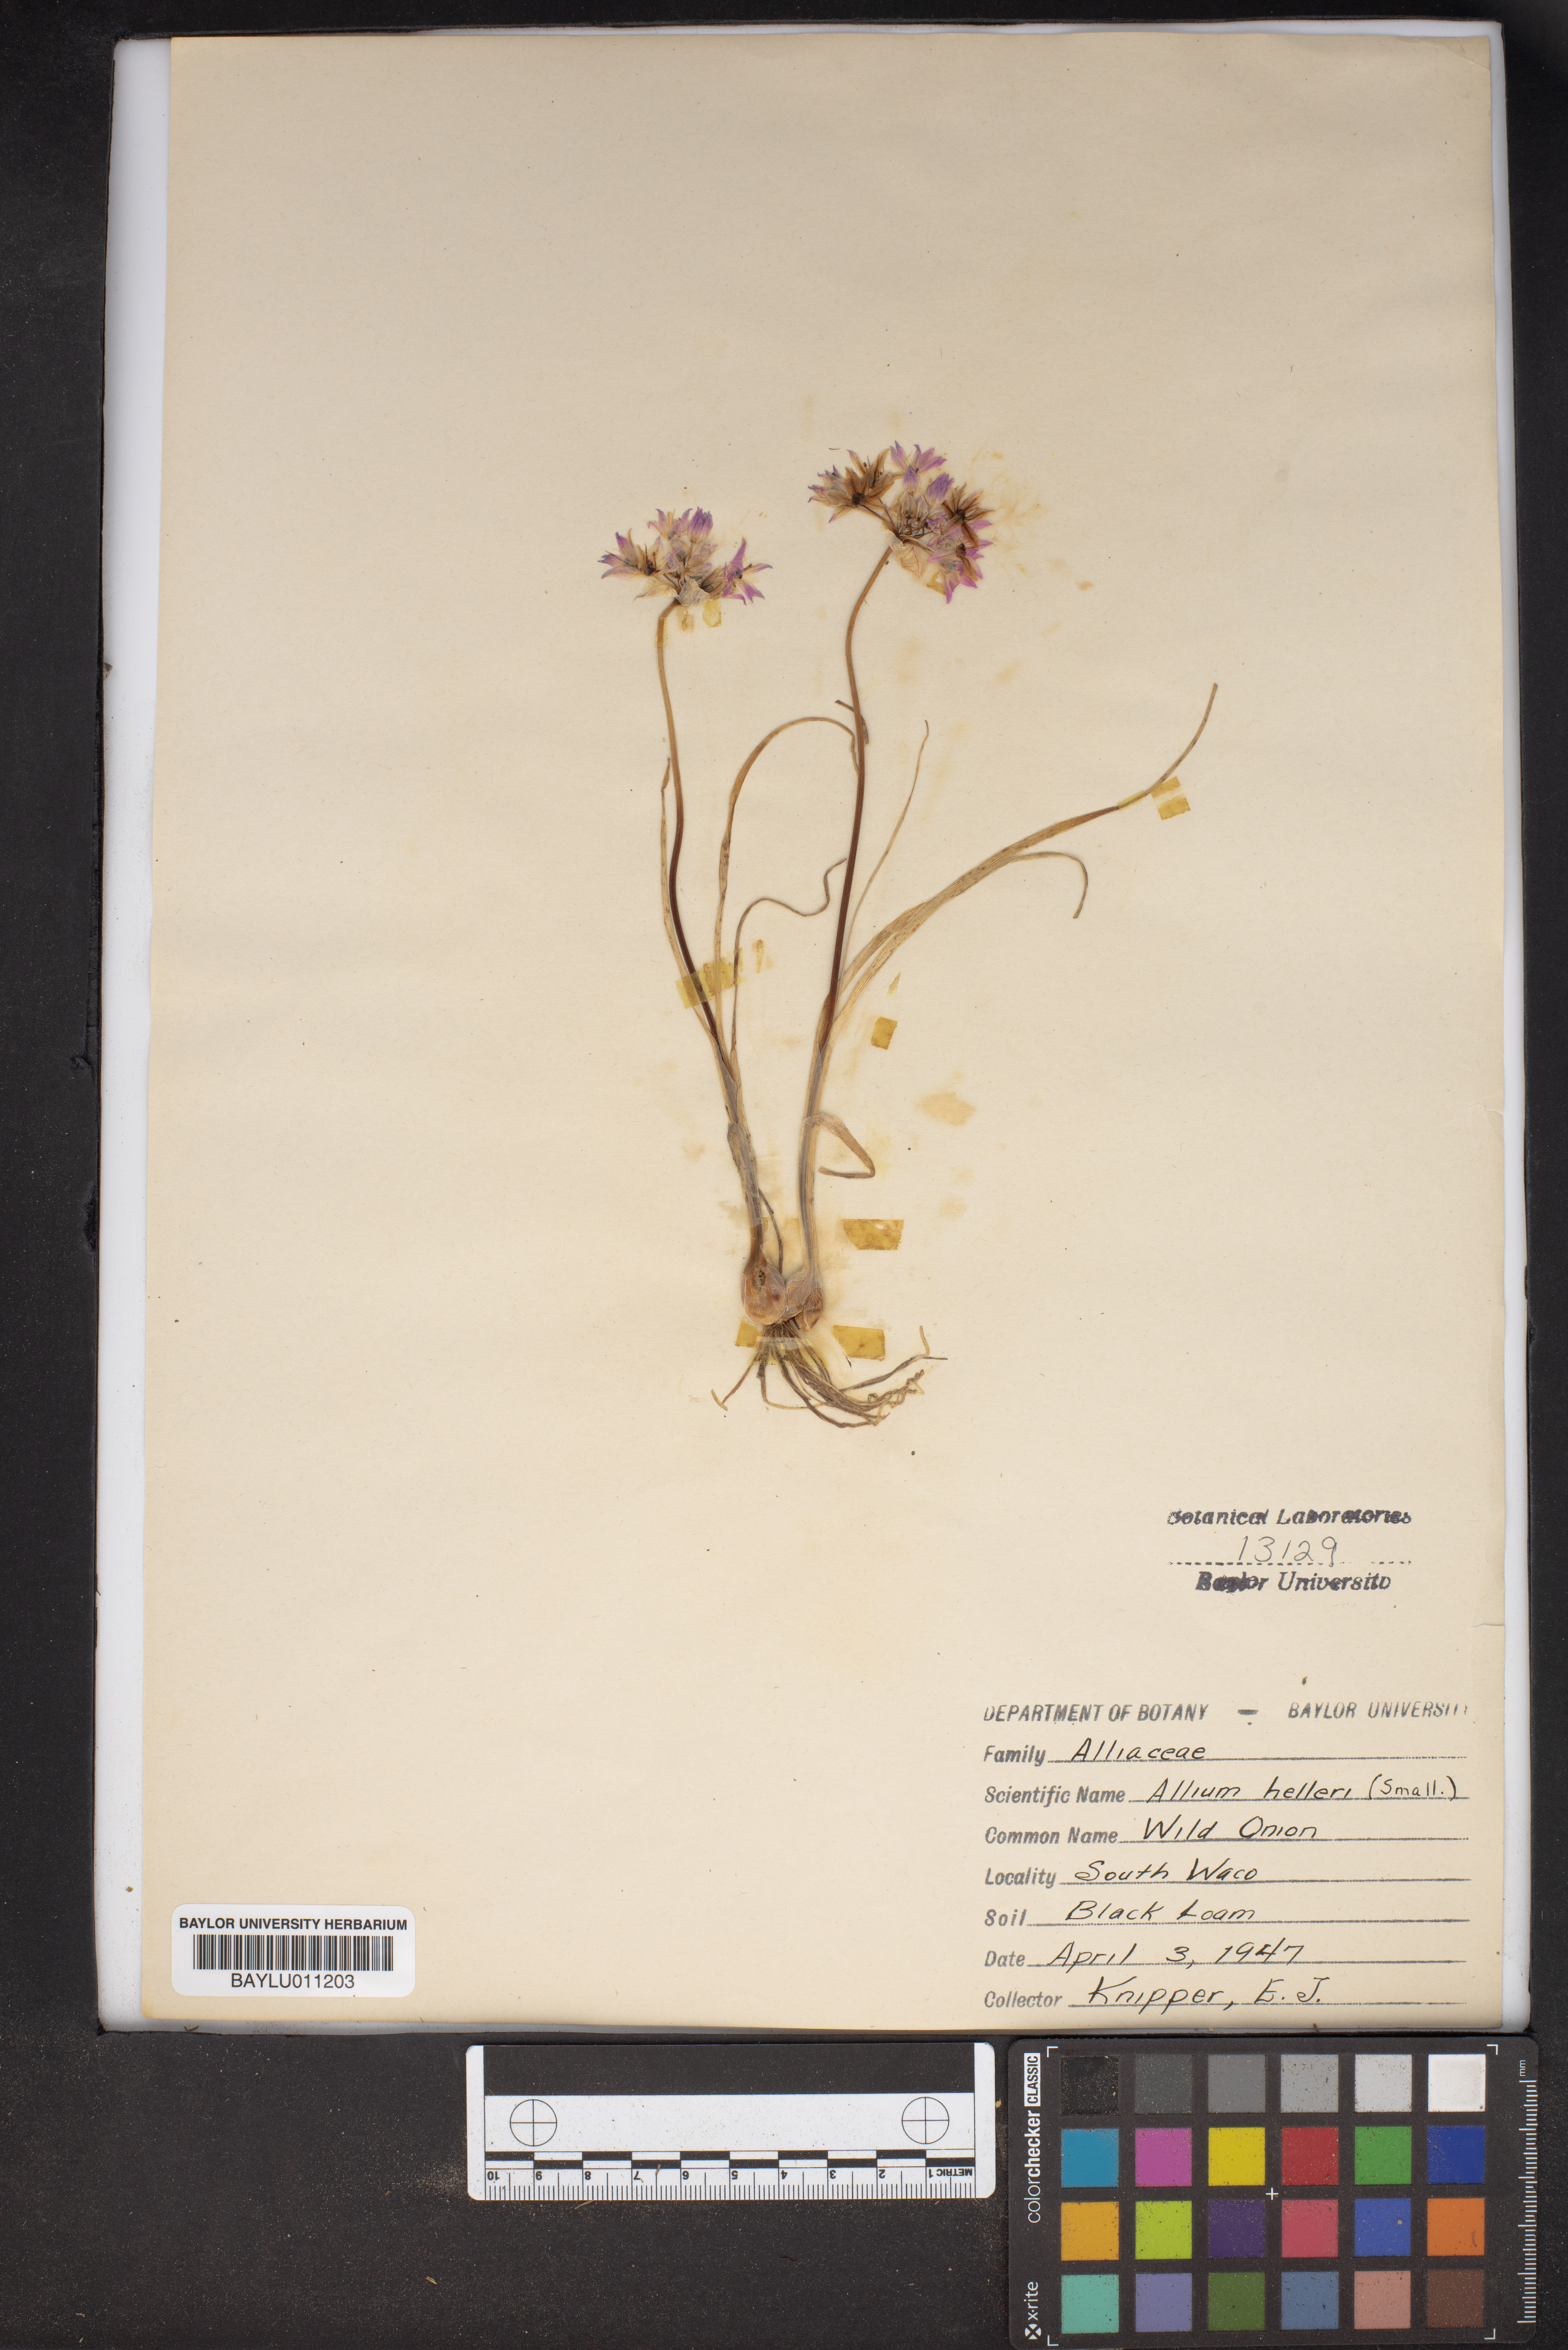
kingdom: Plantae
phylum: Tracheophyta
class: Liliopsida
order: Asparagales
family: Amaryllidaceae
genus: Allium
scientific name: Allium drummondii
